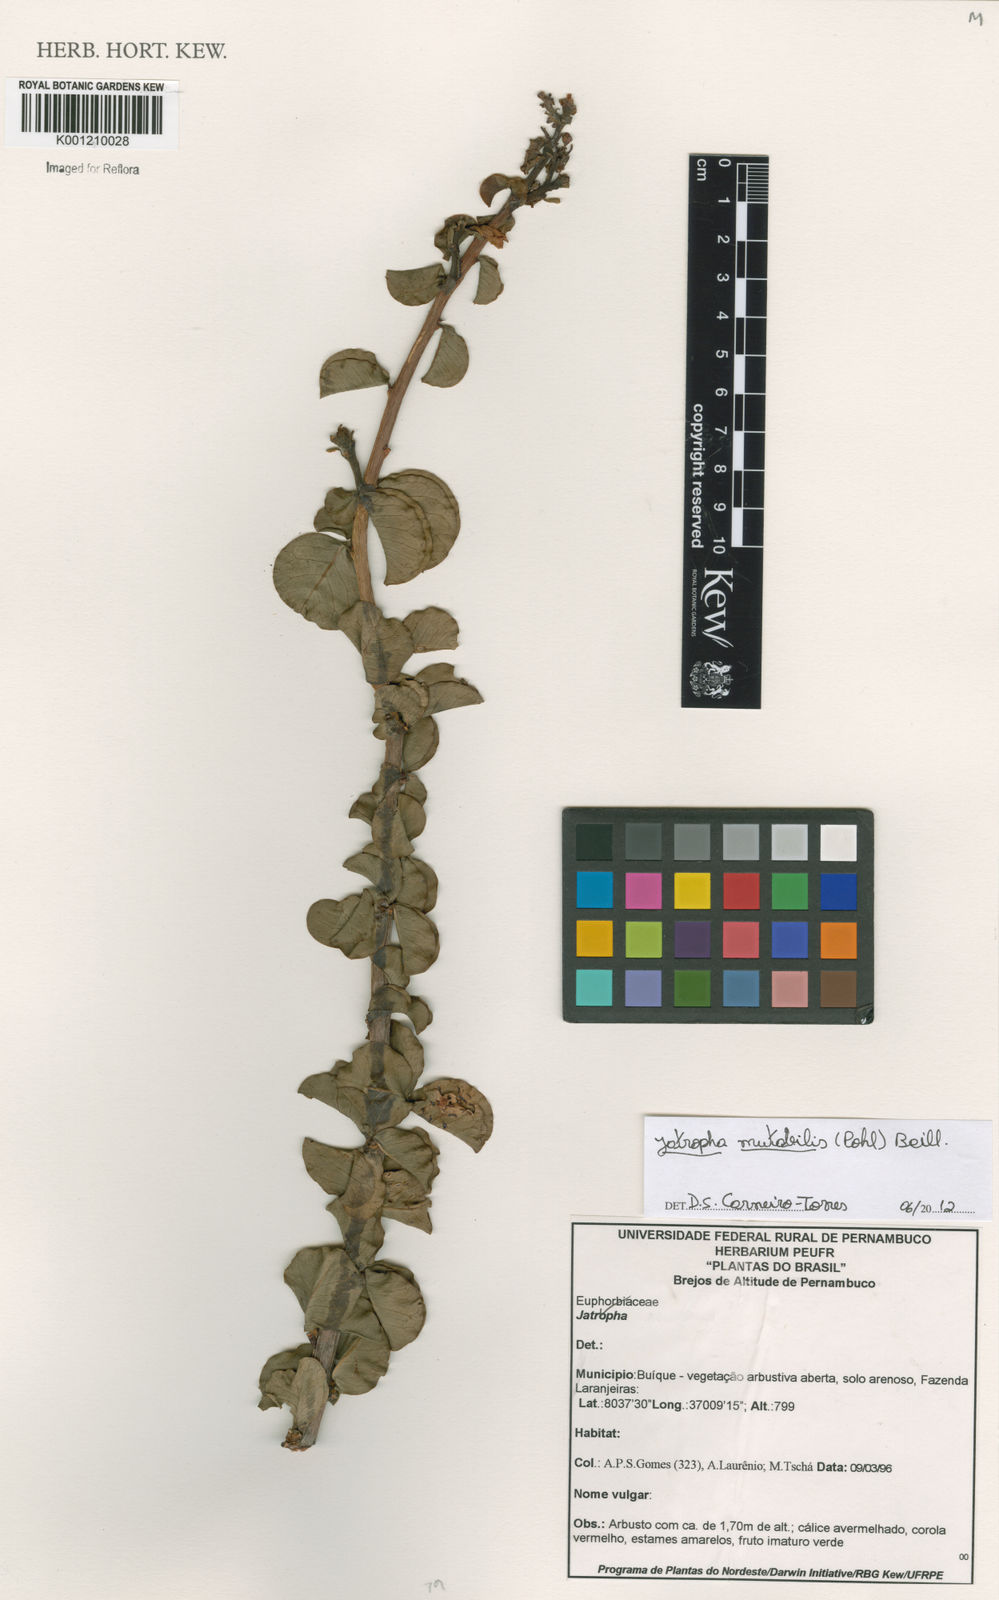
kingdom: Plantae
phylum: Tracheophyta
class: Magnoliopsida
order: Malpighiales
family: Euphorbiaceae
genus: Jatropha
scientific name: Jatropha mutabilis
